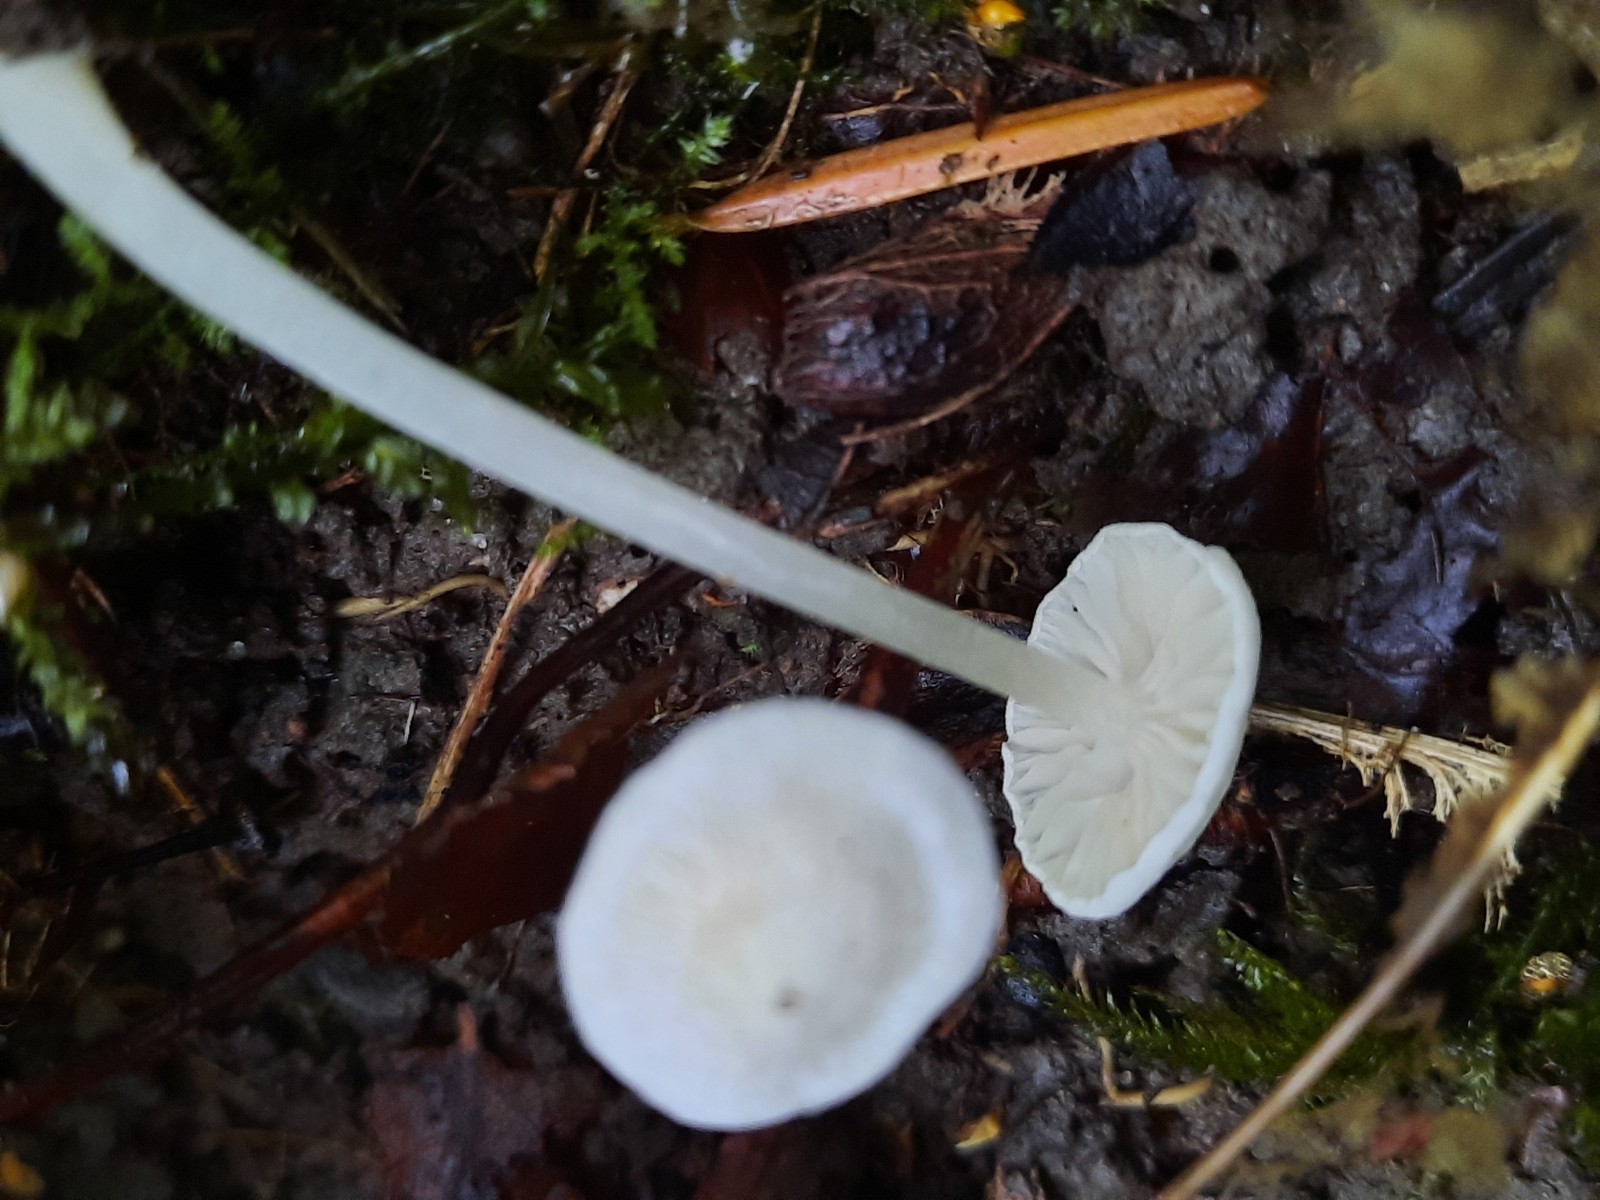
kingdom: Fungi
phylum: Basidiomycota
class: Agaricomycetes
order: Agaricales
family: Entolomataceae
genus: Entoloma
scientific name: Entoloma sericellum
